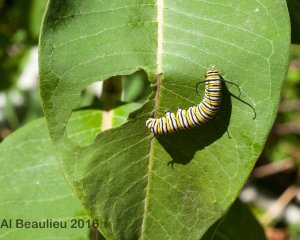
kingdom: Animalia
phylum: Arthropoda
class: Insecta
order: Lepidoptera
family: Nymphalidae
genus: Danaus
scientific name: Danaus plexippus
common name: Monarch
